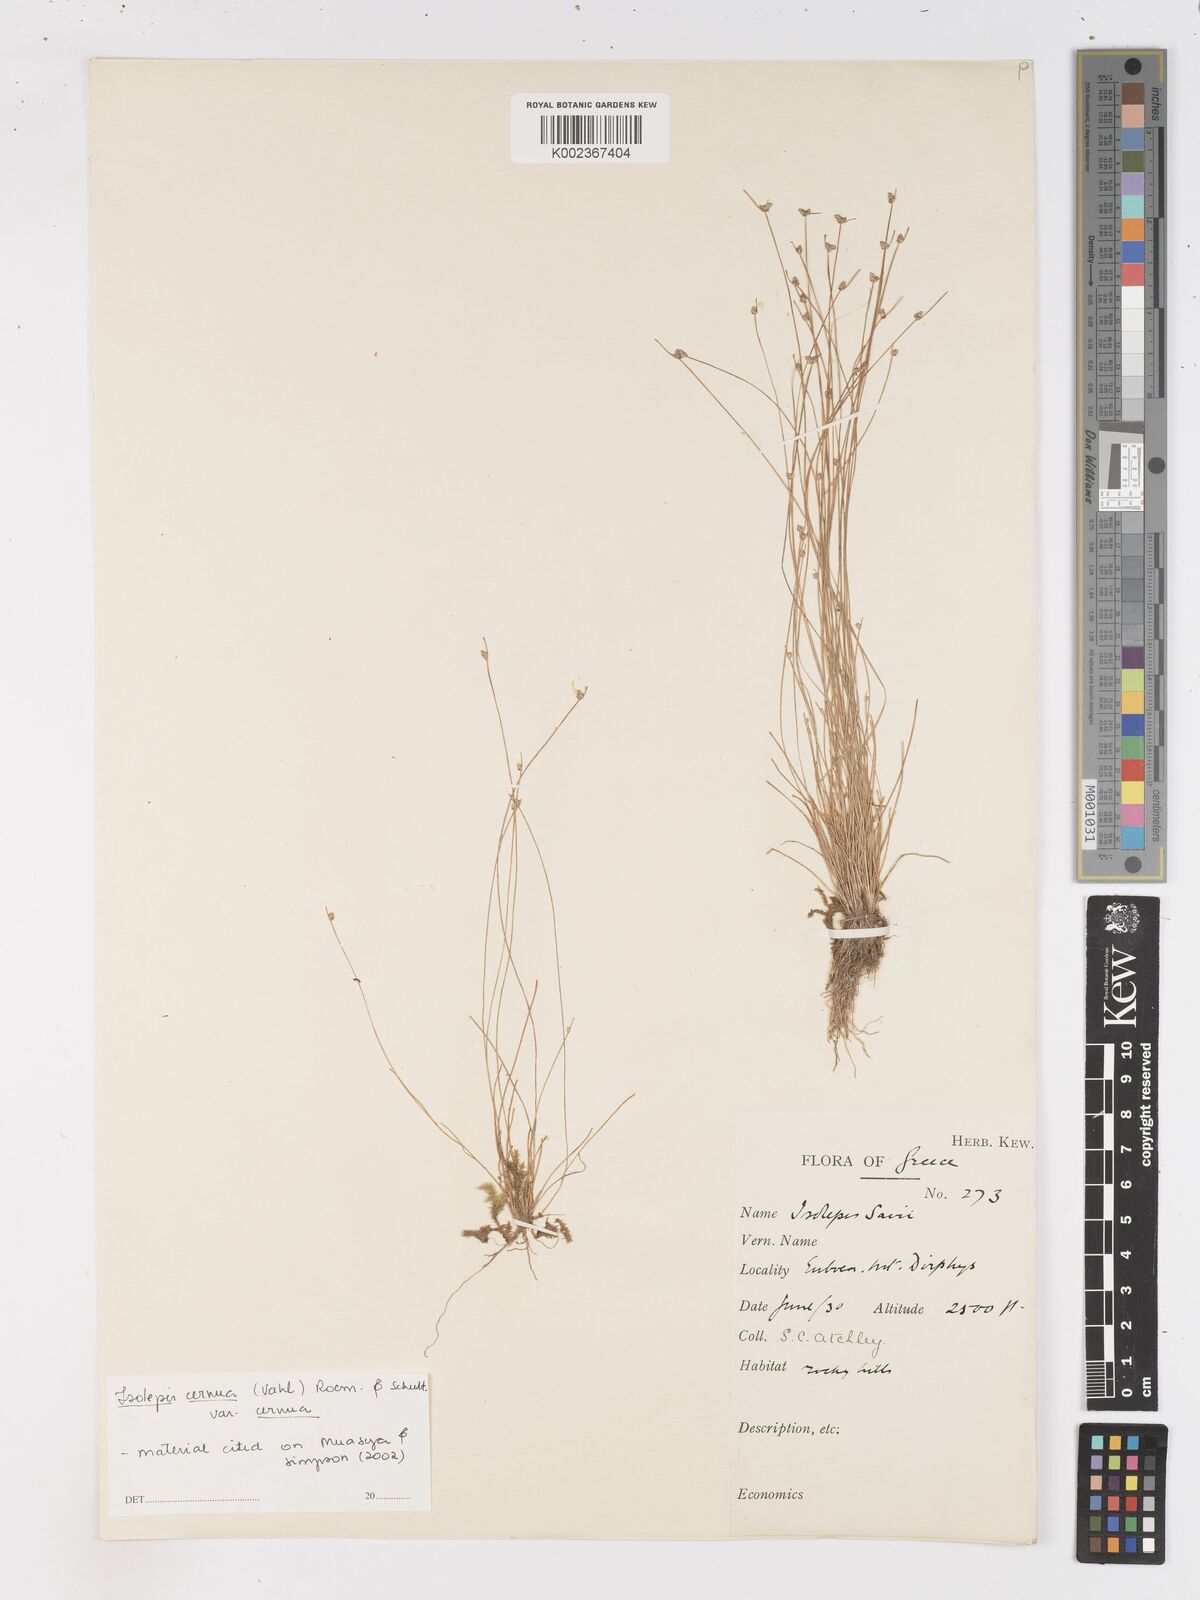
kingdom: Plantae
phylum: Tracheophyta
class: Liliopsida
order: Poales
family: Cyperaceae
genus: Isolepis
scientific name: Isolepis cernua
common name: Slender club-rush
